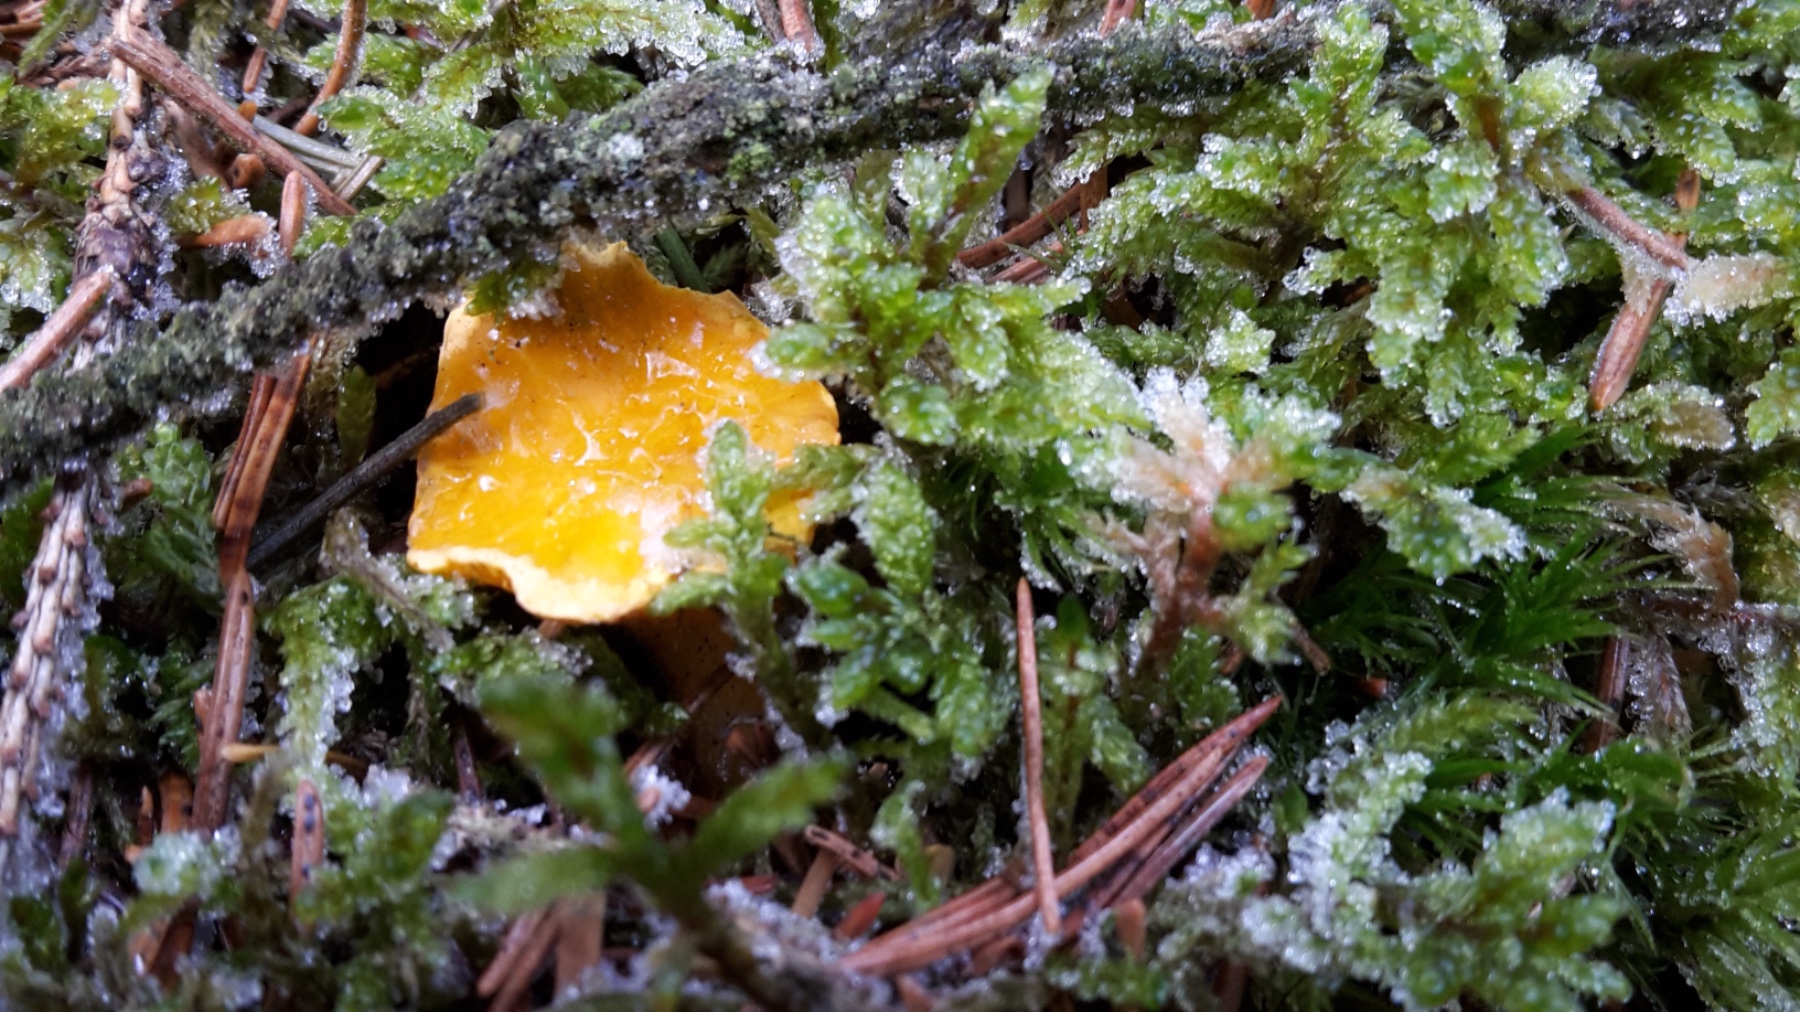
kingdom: Fungi
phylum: Basidiomycota
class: Agaricomycetes
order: Cantharellales
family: Hydnaceae
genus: Cantharellus
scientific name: Cantharellus cibarius
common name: almindelig kantarel
